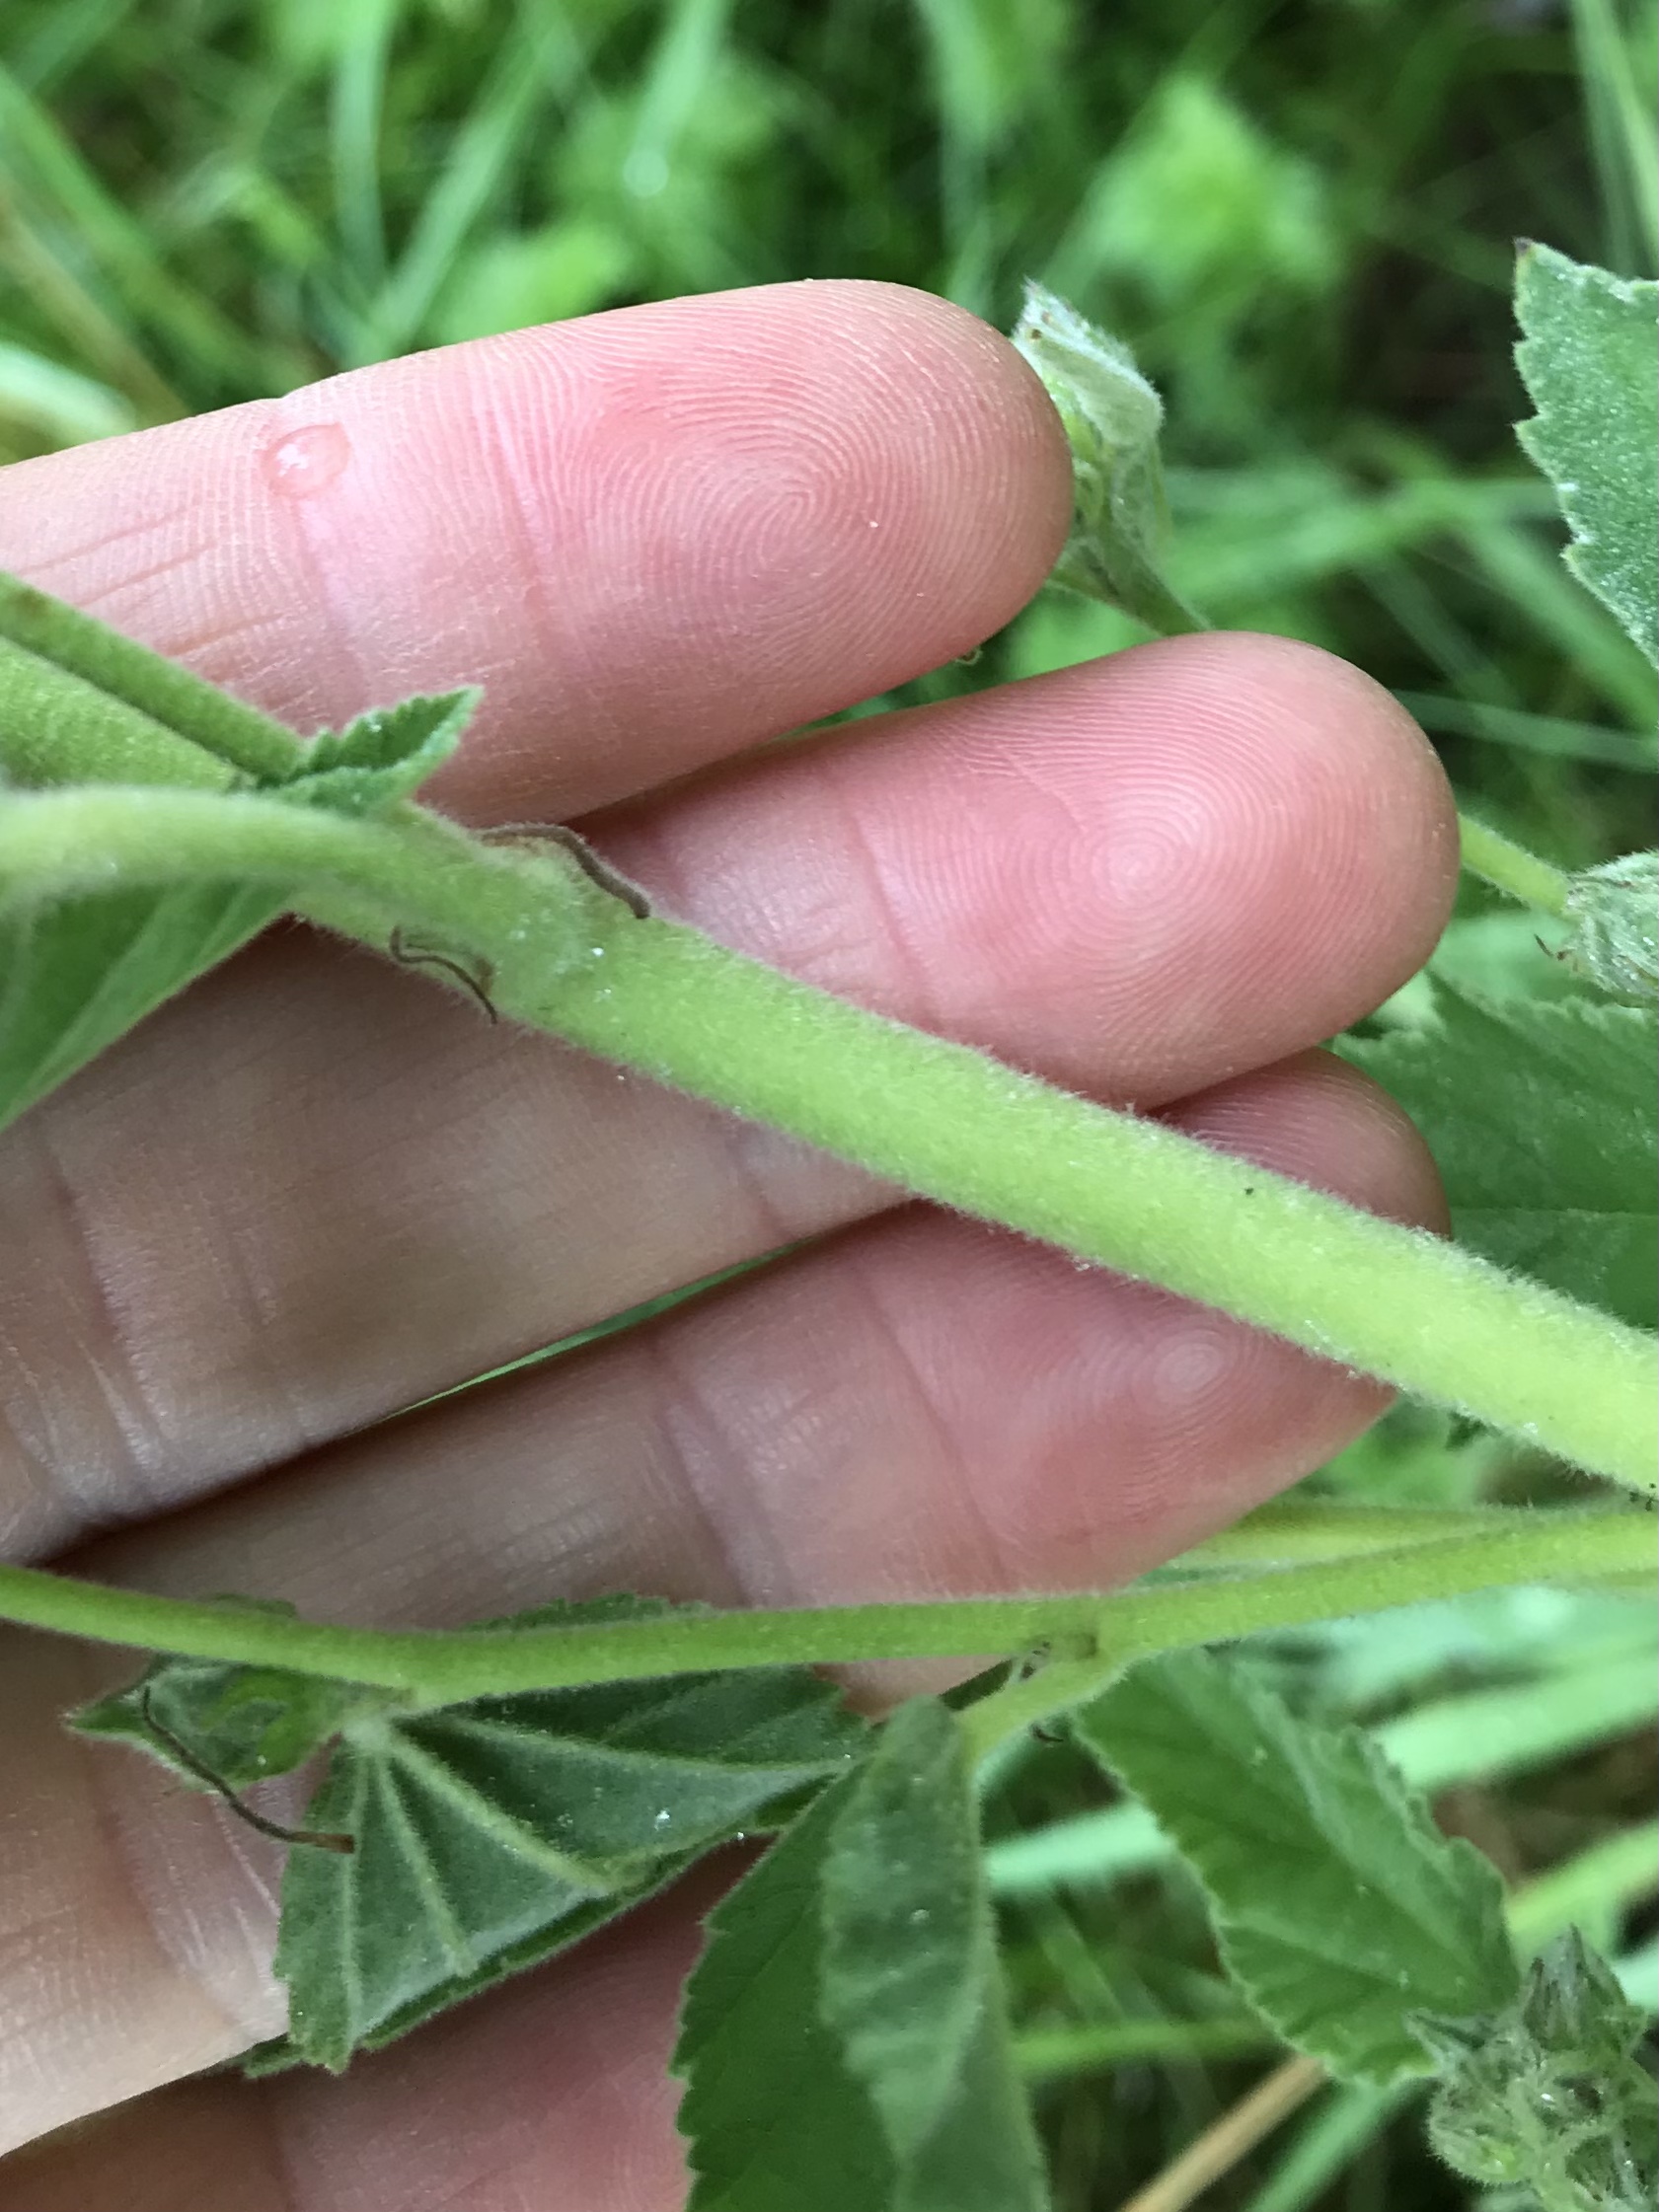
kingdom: Plantae
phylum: Tracheophyta
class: Magnoliopsida
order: Malvales
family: Malvaceae
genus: Althaea
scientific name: Althaea officinalis
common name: Lægestokrose
